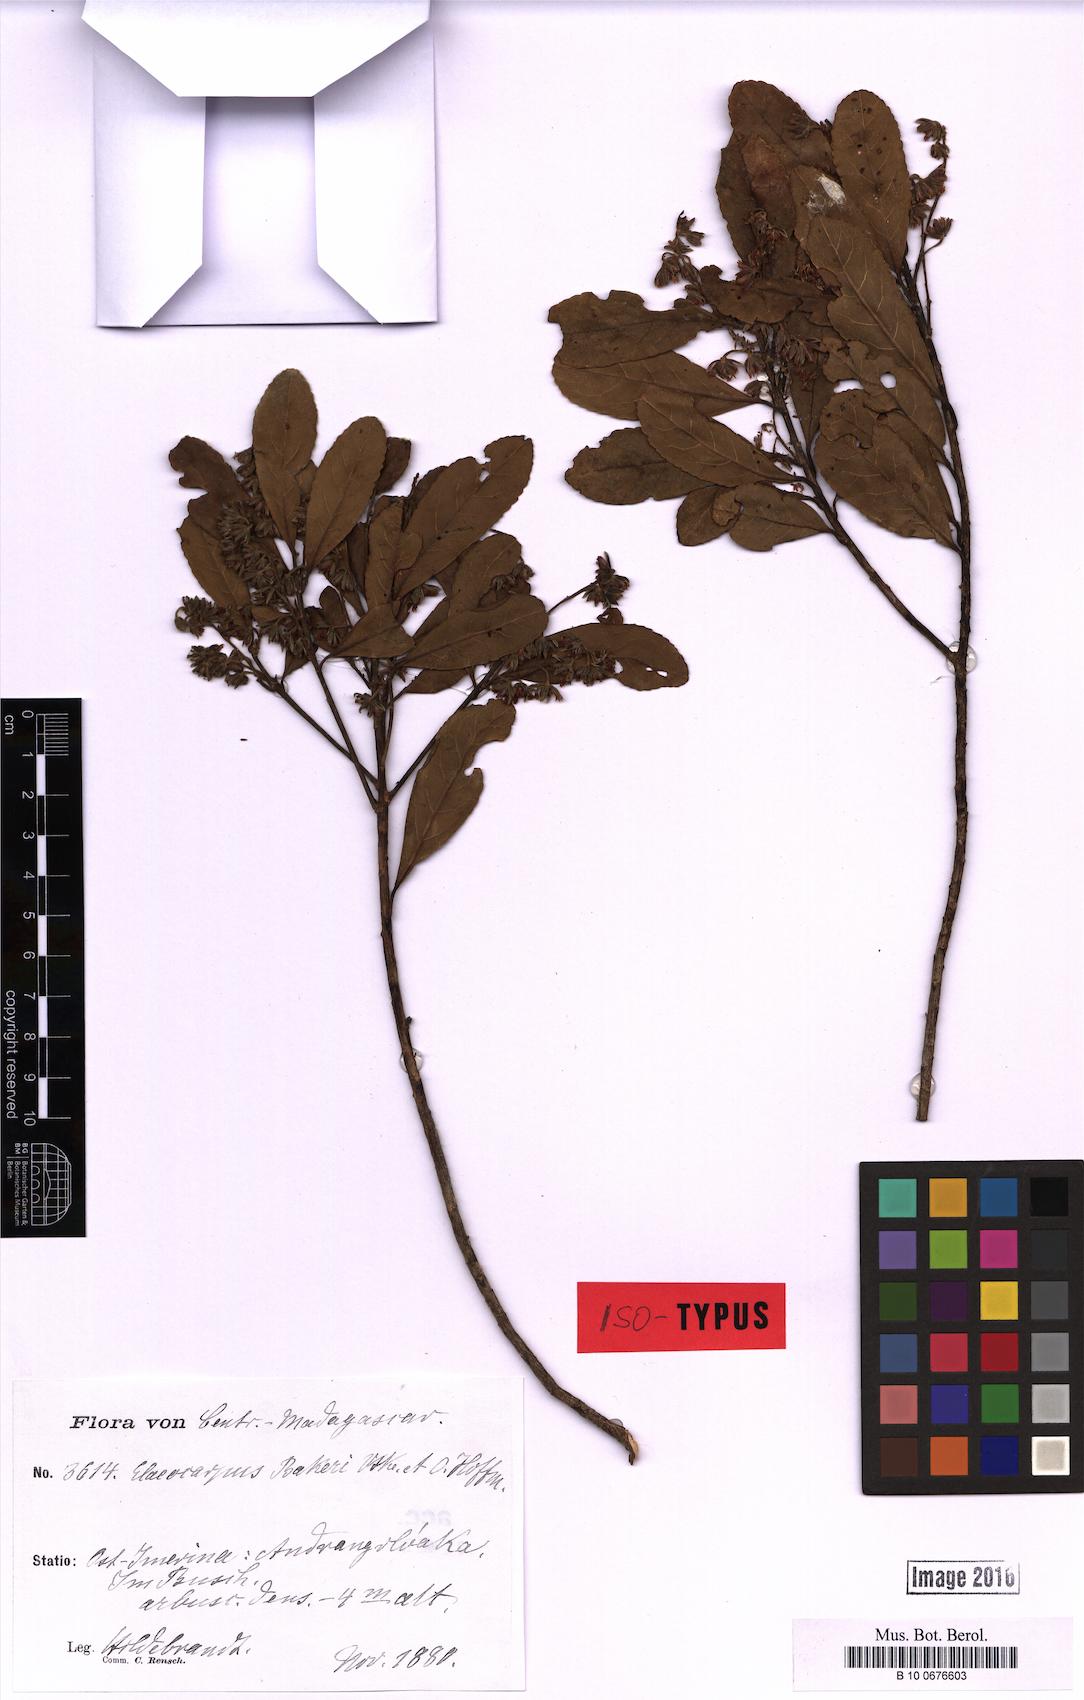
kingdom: Plantae
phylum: Tracheophyta
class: Magnoliopsida
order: Oxalidales
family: Elaeocarpaceae
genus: Elaeocarpus
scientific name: Elaeocarpus hildebrandtii
